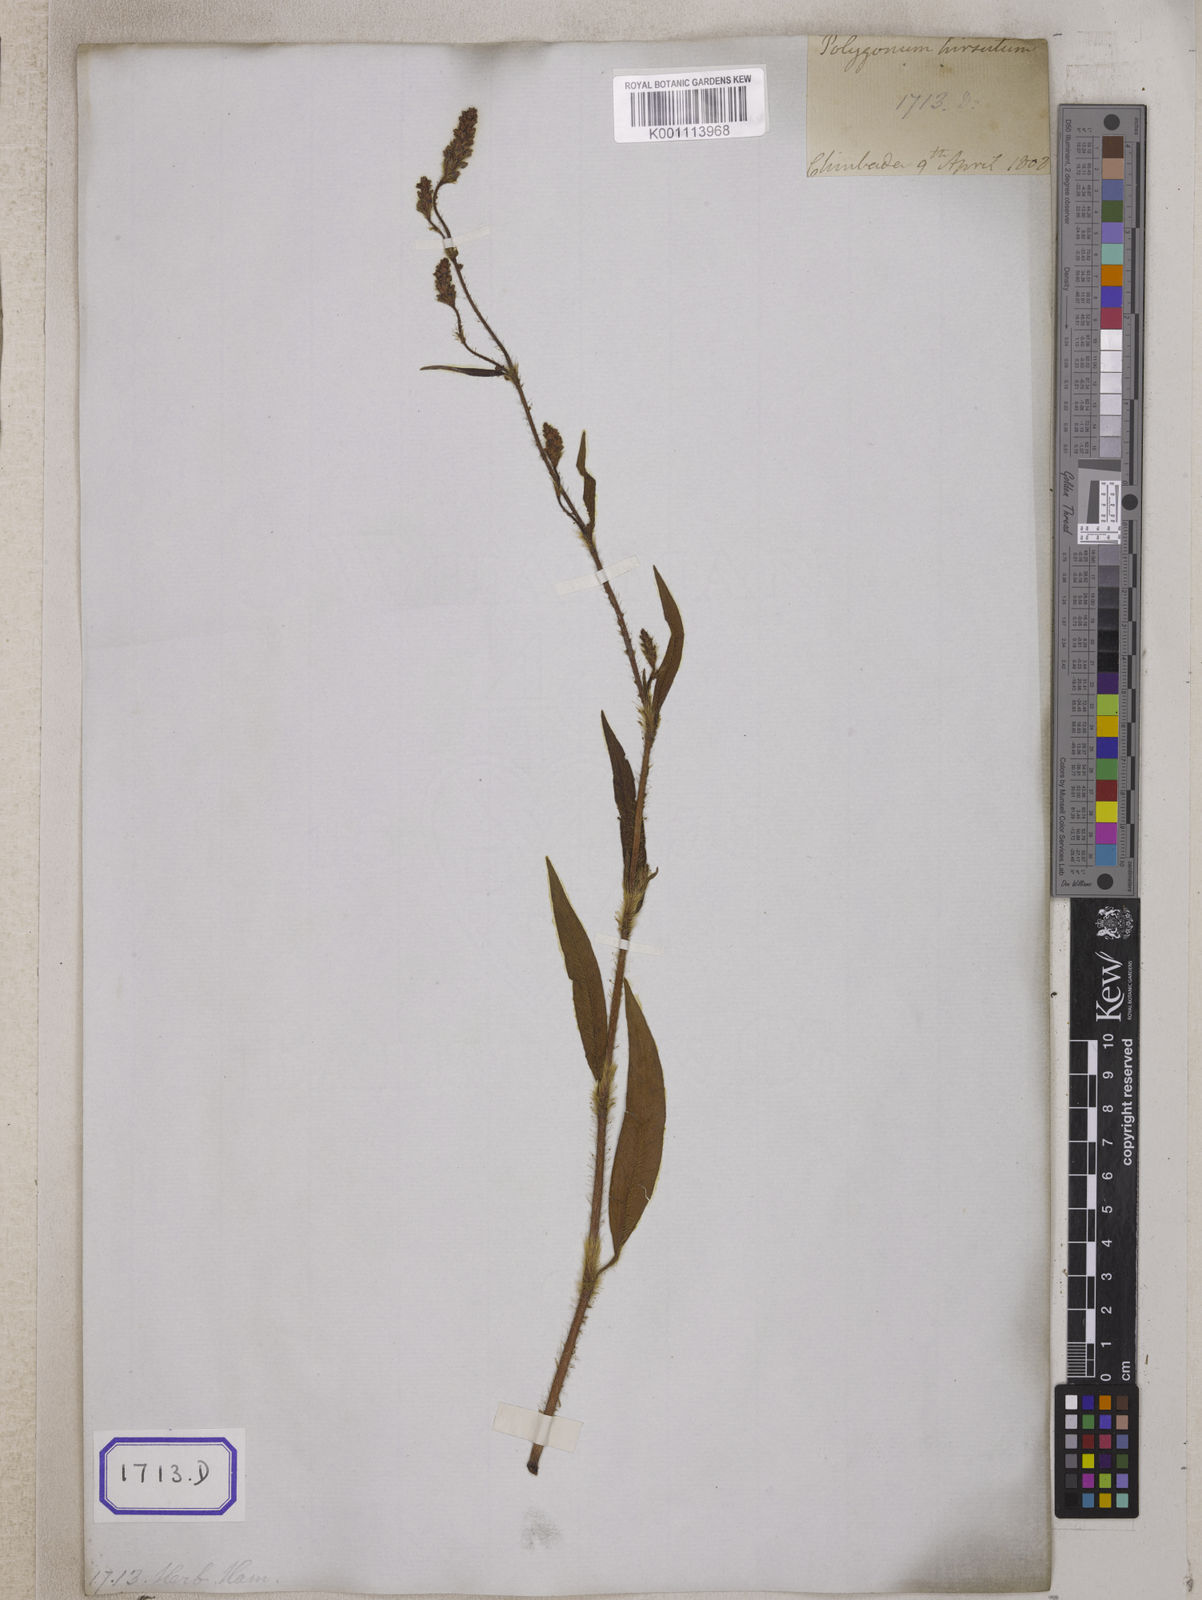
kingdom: Plantae
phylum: Tracheophyta
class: Magnoliopsida
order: Caryophyllales
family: Polygonaceae
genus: Polygonum
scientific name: Polygonum
